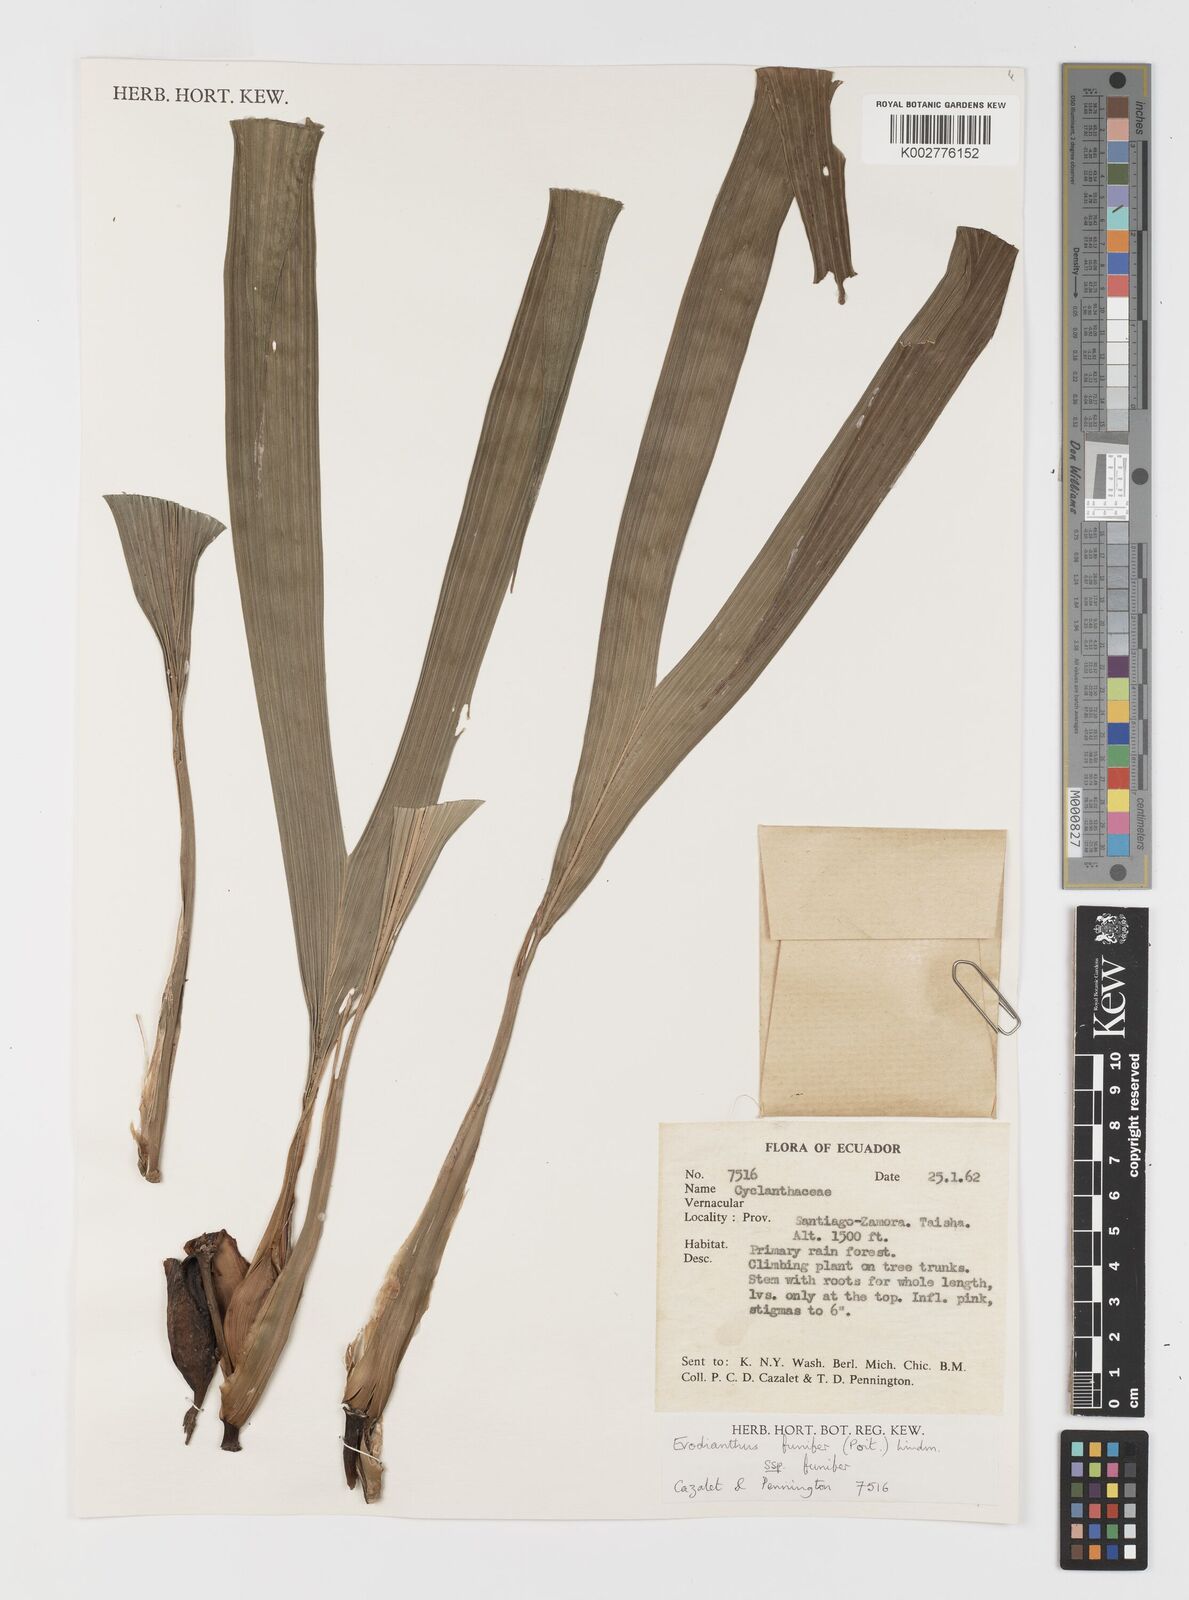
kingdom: Plantae
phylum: Tracheophyta
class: Liliopsida
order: Pandanales
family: Cyclanthaceae
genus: Evodianthus
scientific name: Evodianthus funifer
